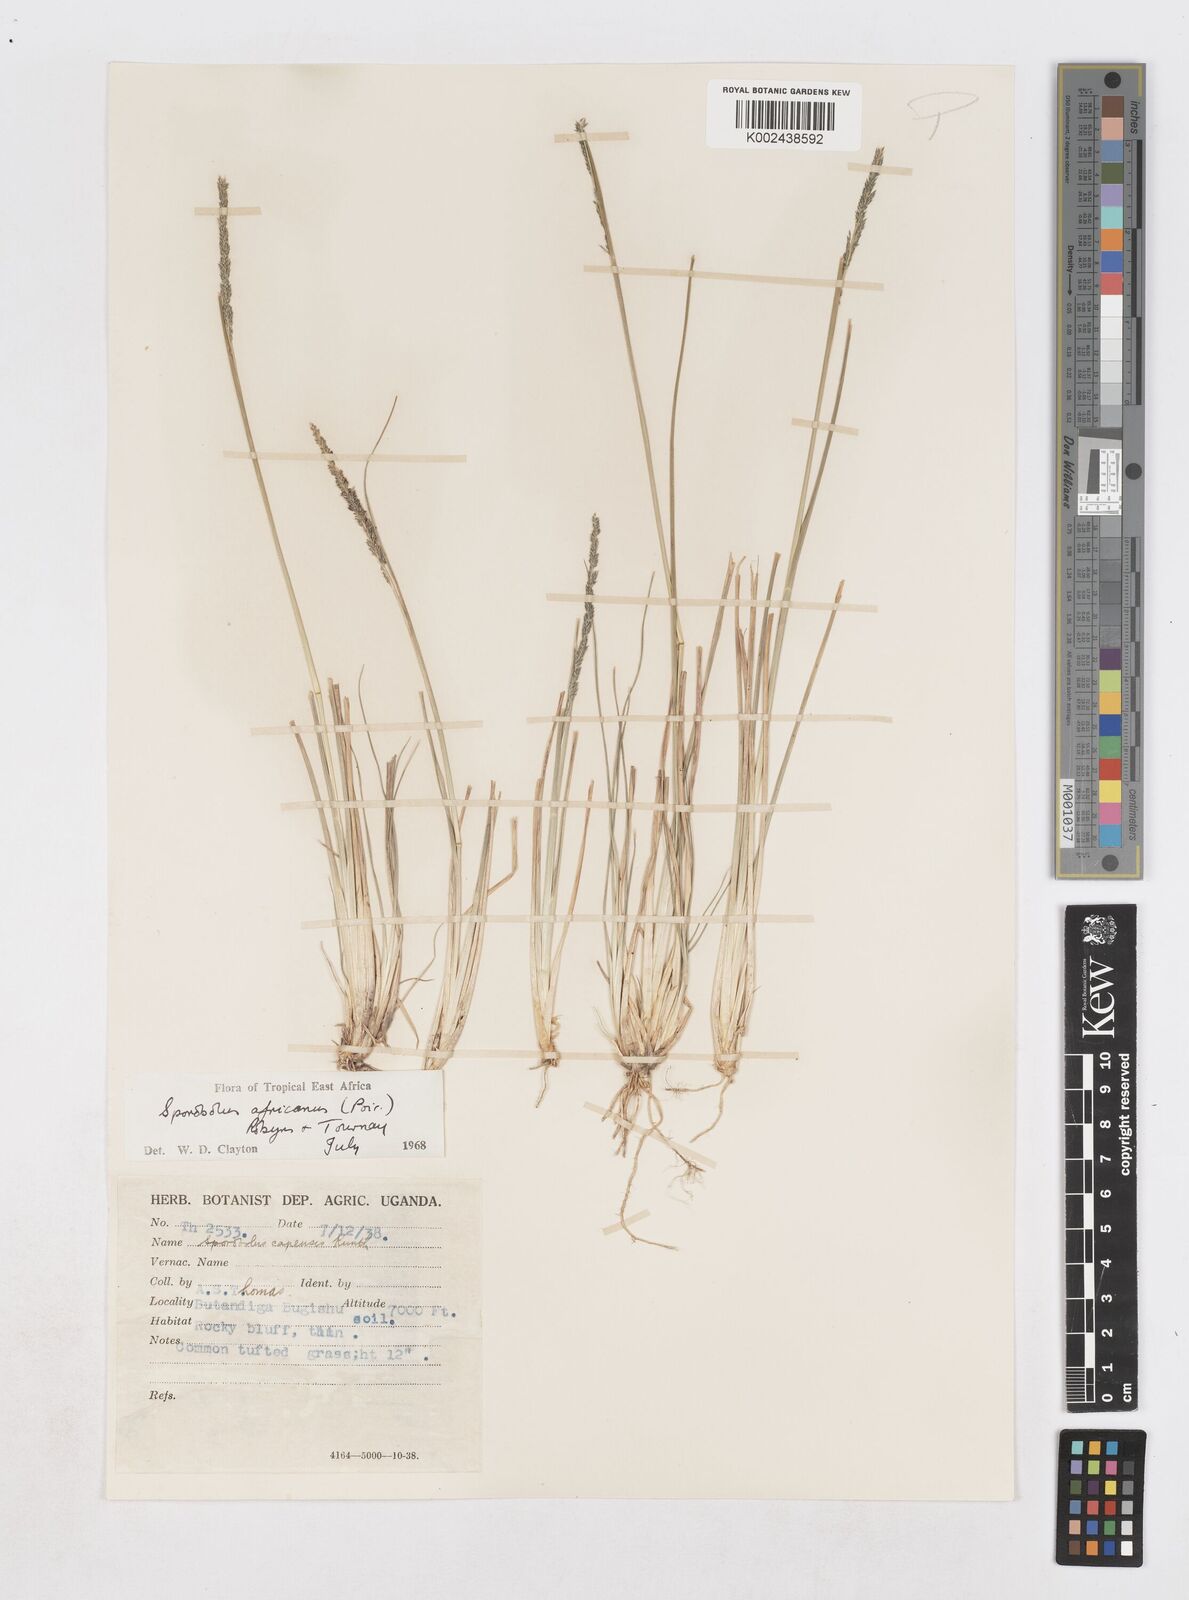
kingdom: Plantae
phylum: Tracheophyta
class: Liliopsida
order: Poales
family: Poaceae
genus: Sporobolus
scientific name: Sporobolus africanus
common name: African dropseed
